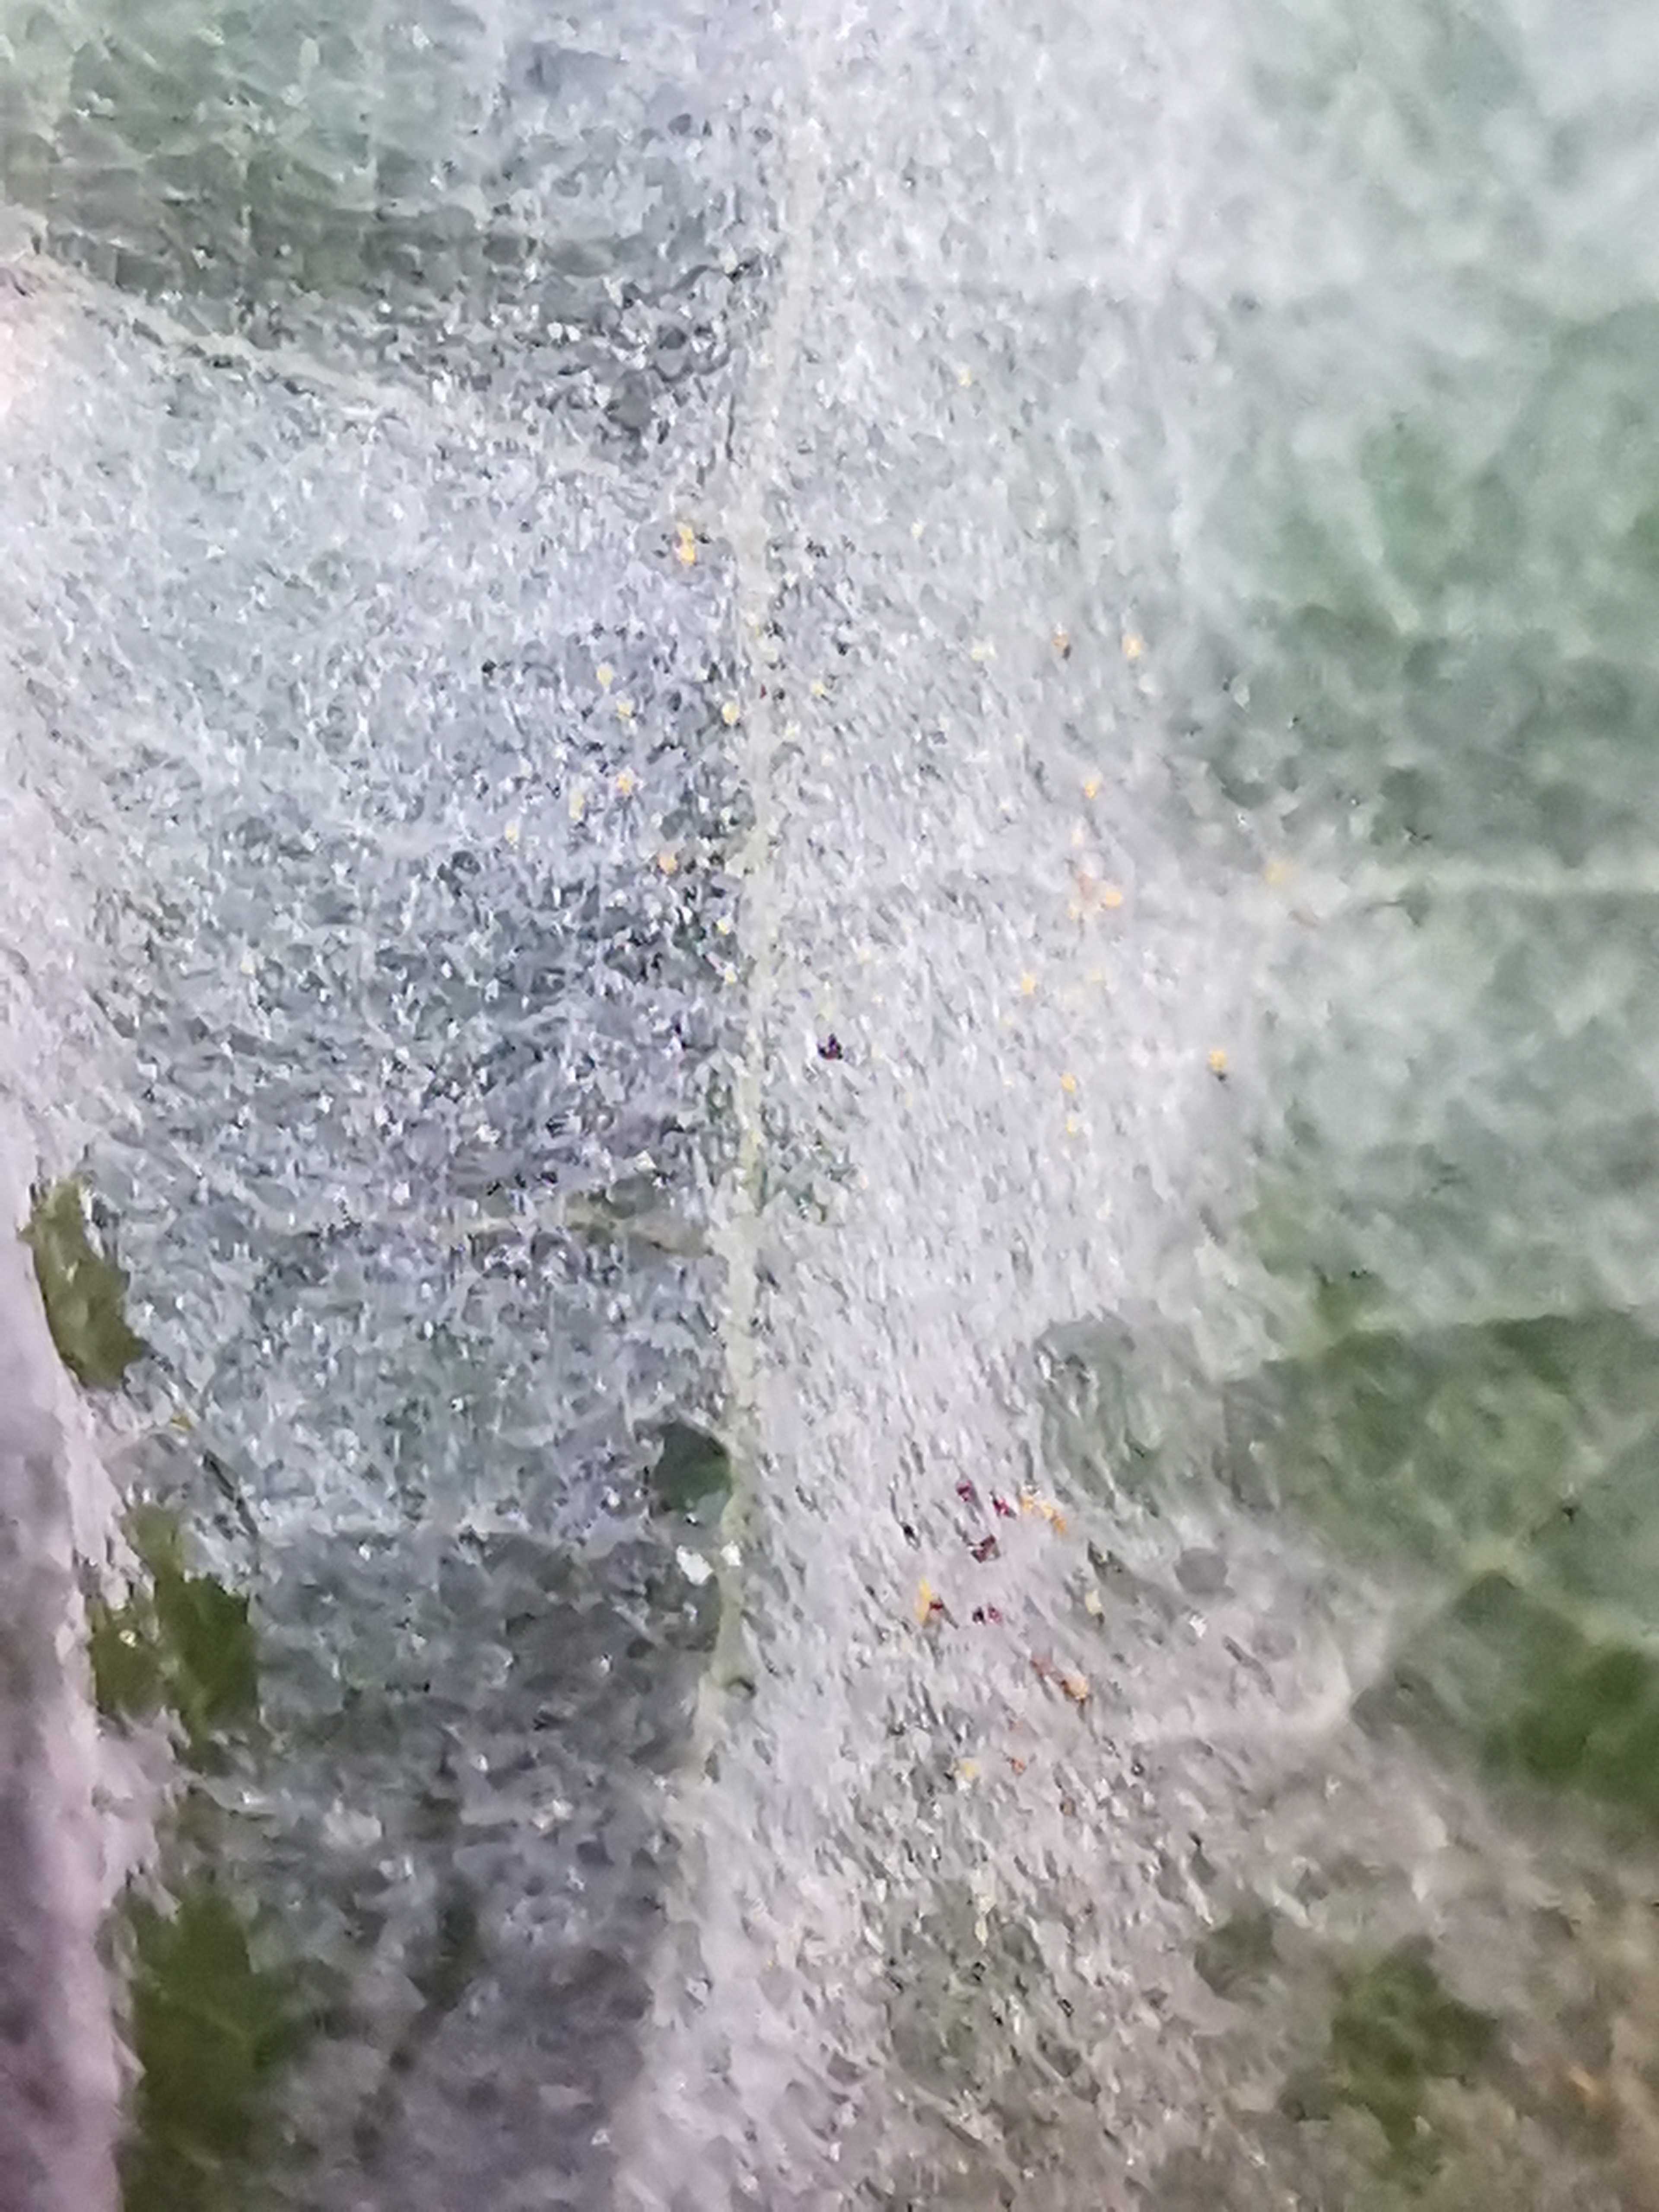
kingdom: Fungi
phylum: Ascomycota
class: Leotiomycetes
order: Helotiales
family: Erysiphaceae
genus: Erysiphe
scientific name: Erysiphe alphitoides
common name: ege-meldug
